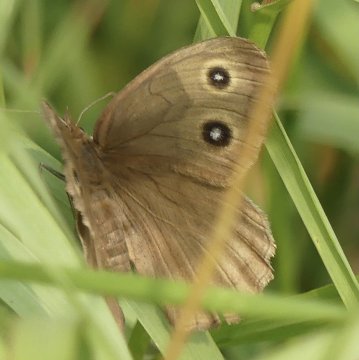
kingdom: Animalia
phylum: Arthropoda
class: Insecta
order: Lepidoptera
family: Nymphalidae
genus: Cercyonis
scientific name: Cercyonis pegala
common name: Common Wood-Nymph
